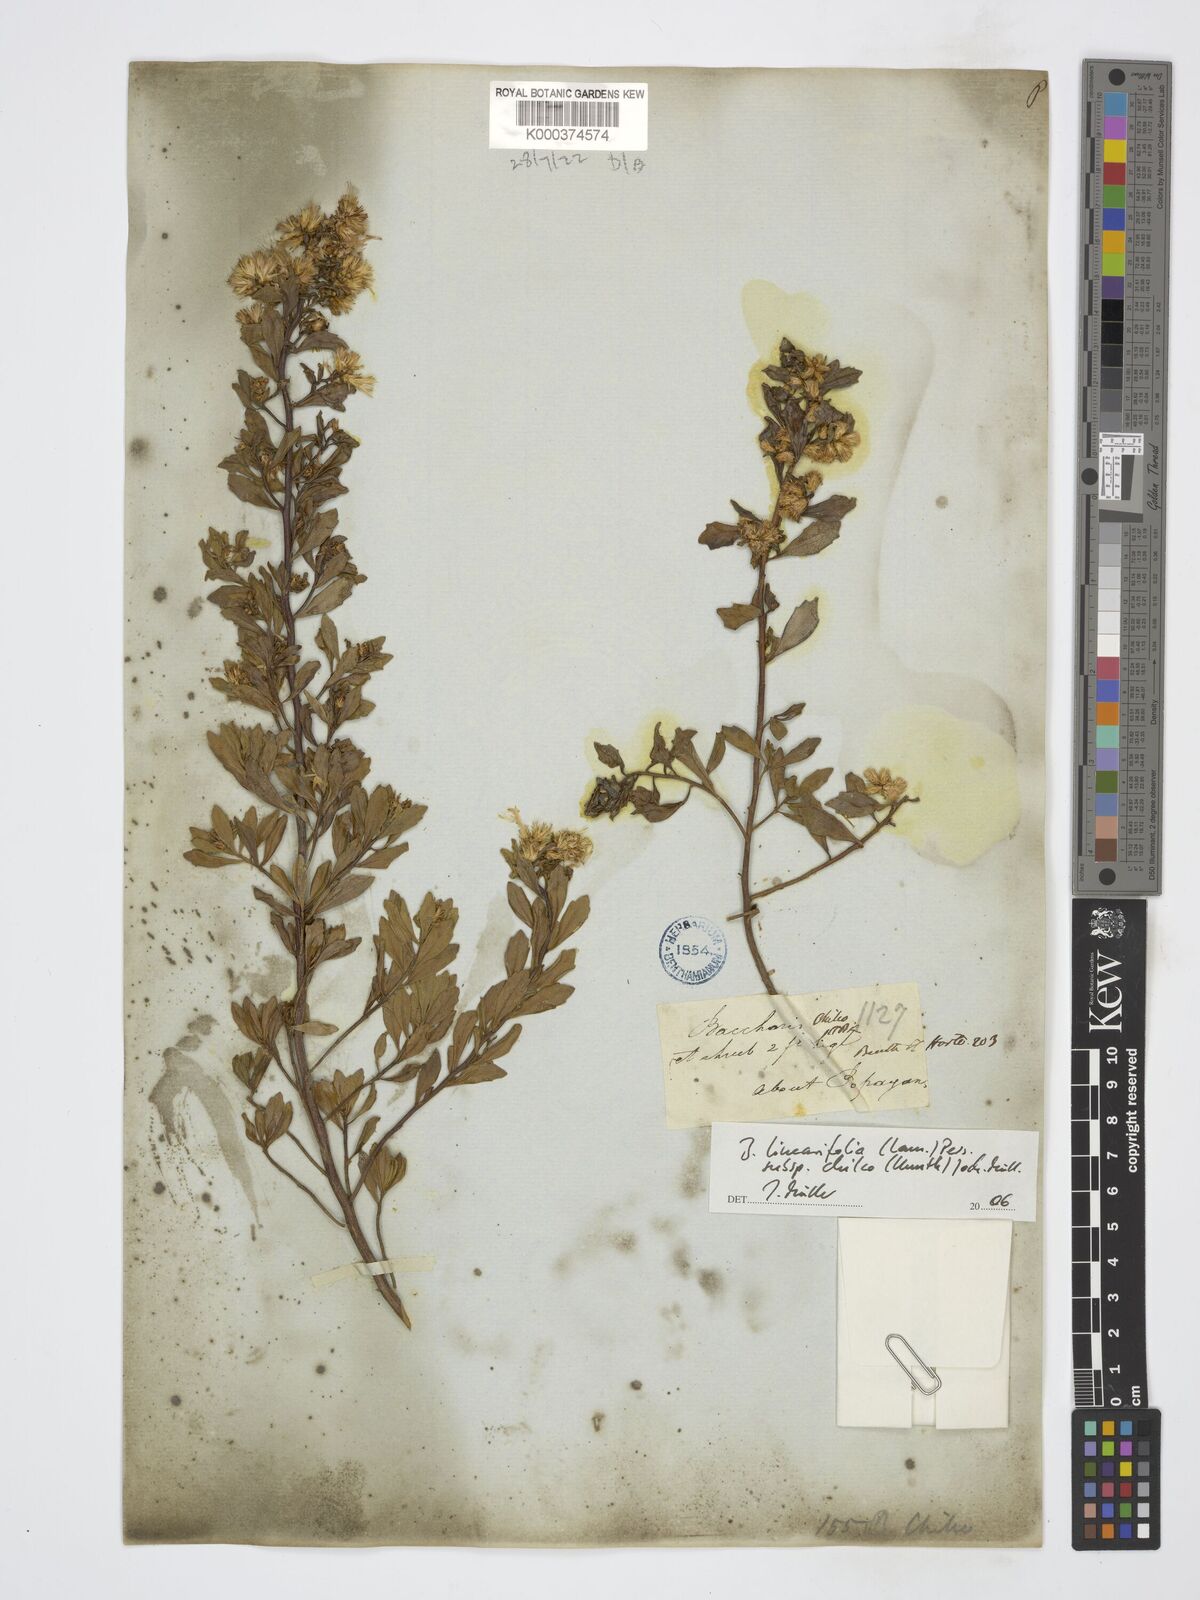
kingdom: Plantae
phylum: Tracheophyta
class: Magnoliopsida
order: Asterales
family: Asteraceae
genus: Baccharis
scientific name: Baccharis linearifolia
